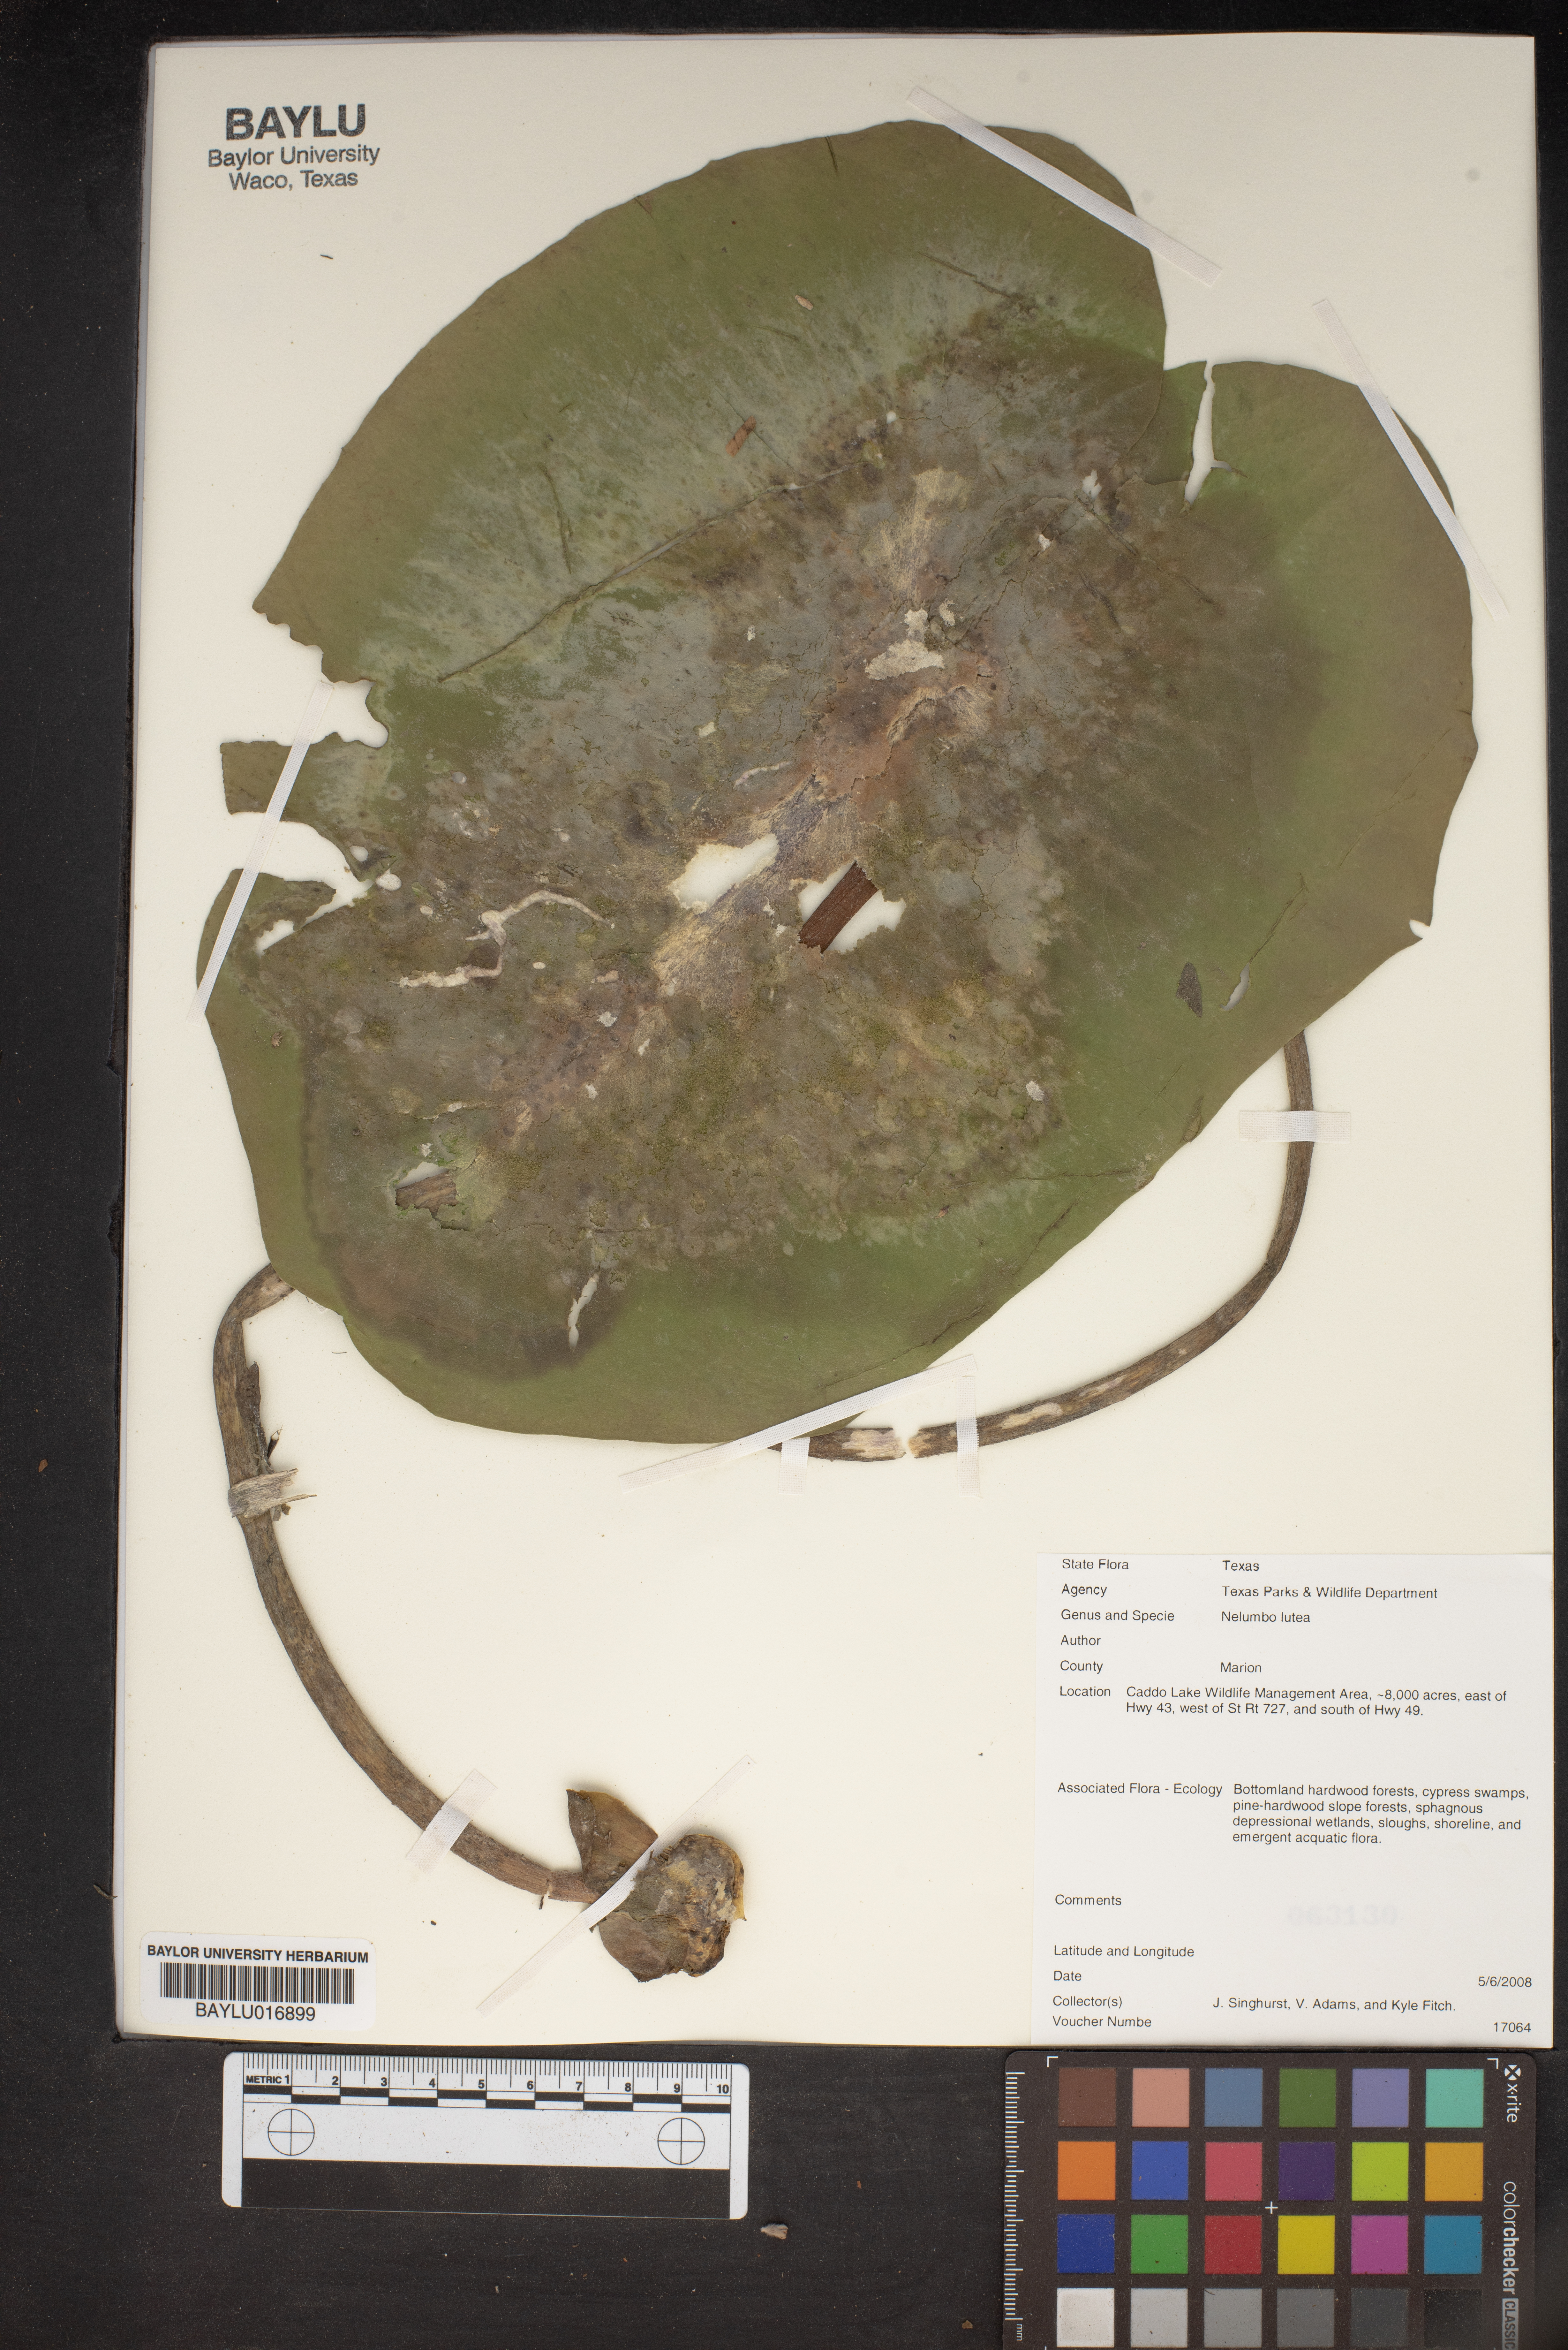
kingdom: Plantae
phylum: Tracheophyta
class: Magnoliopsida
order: Proteales
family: Nelumbonaceae
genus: Nelumbo
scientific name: Nelumbo lutea
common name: American lotus
